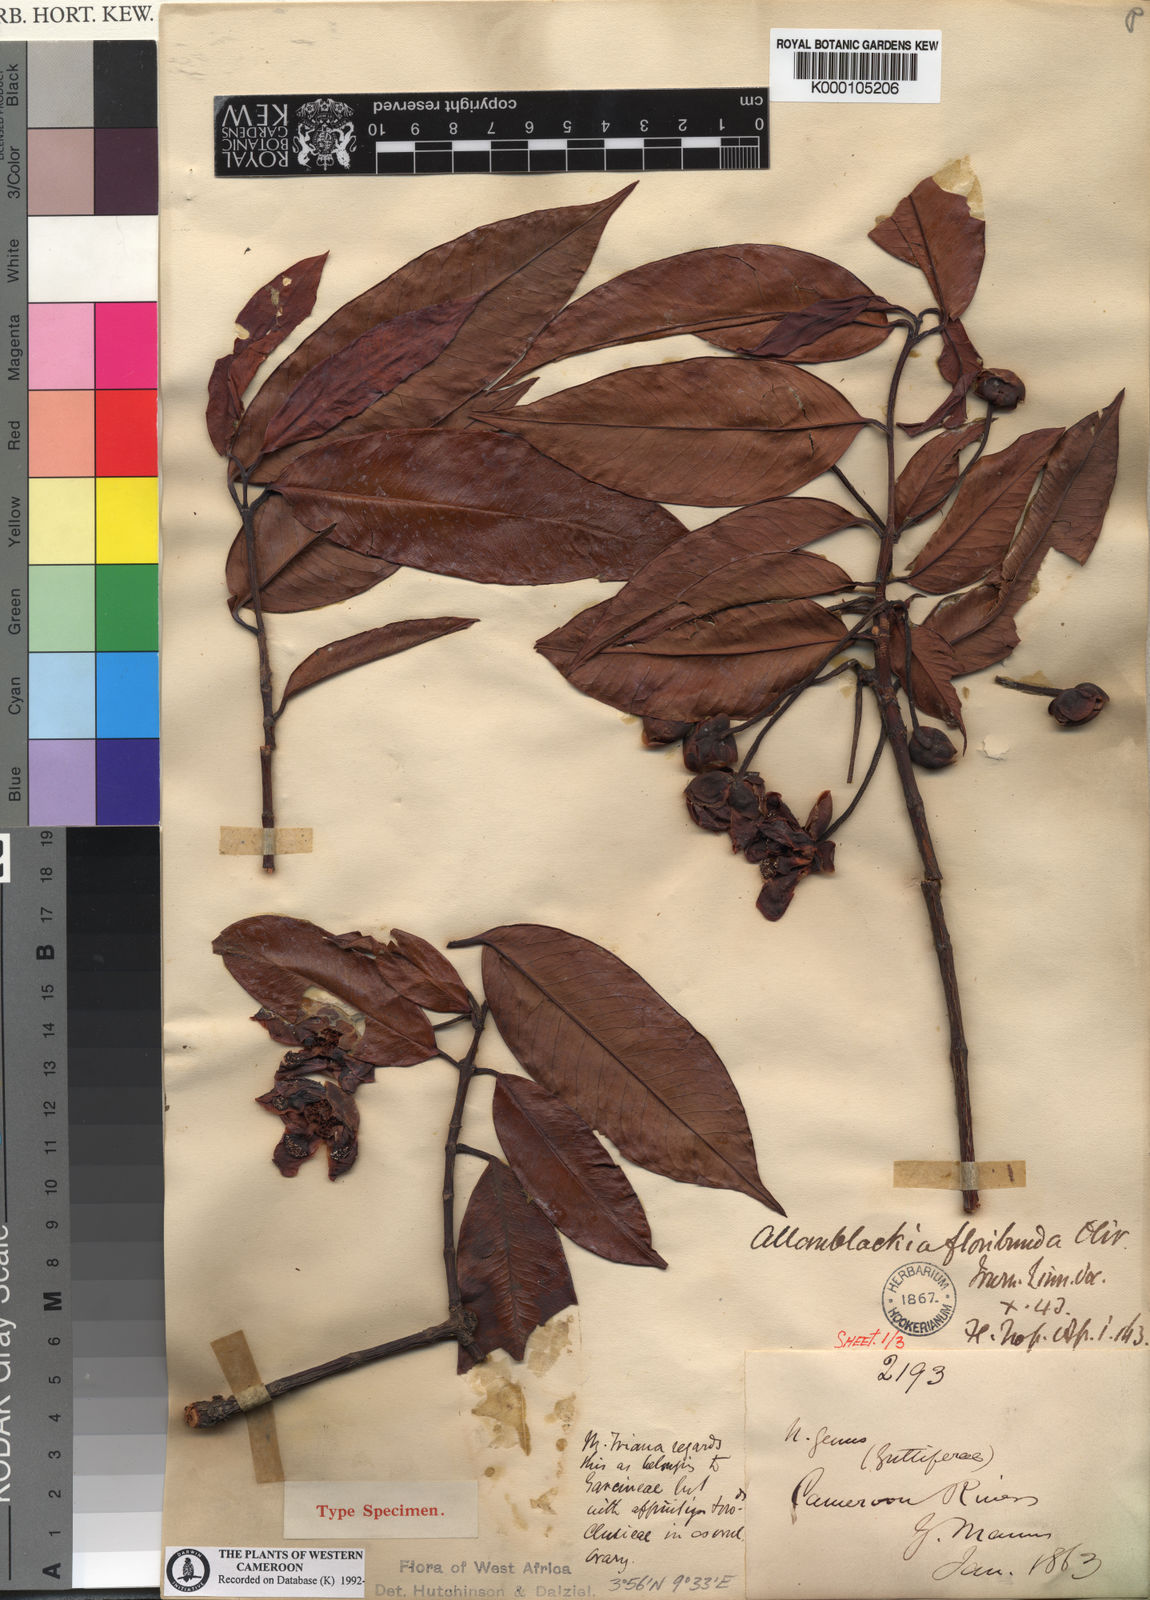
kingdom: Plantae
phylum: Tracheophyta
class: Magnoliopsida
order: Malpighiales
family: Clusiaceae
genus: Allanblackia
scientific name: Allanblackia floribunda
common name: Tallow tree
